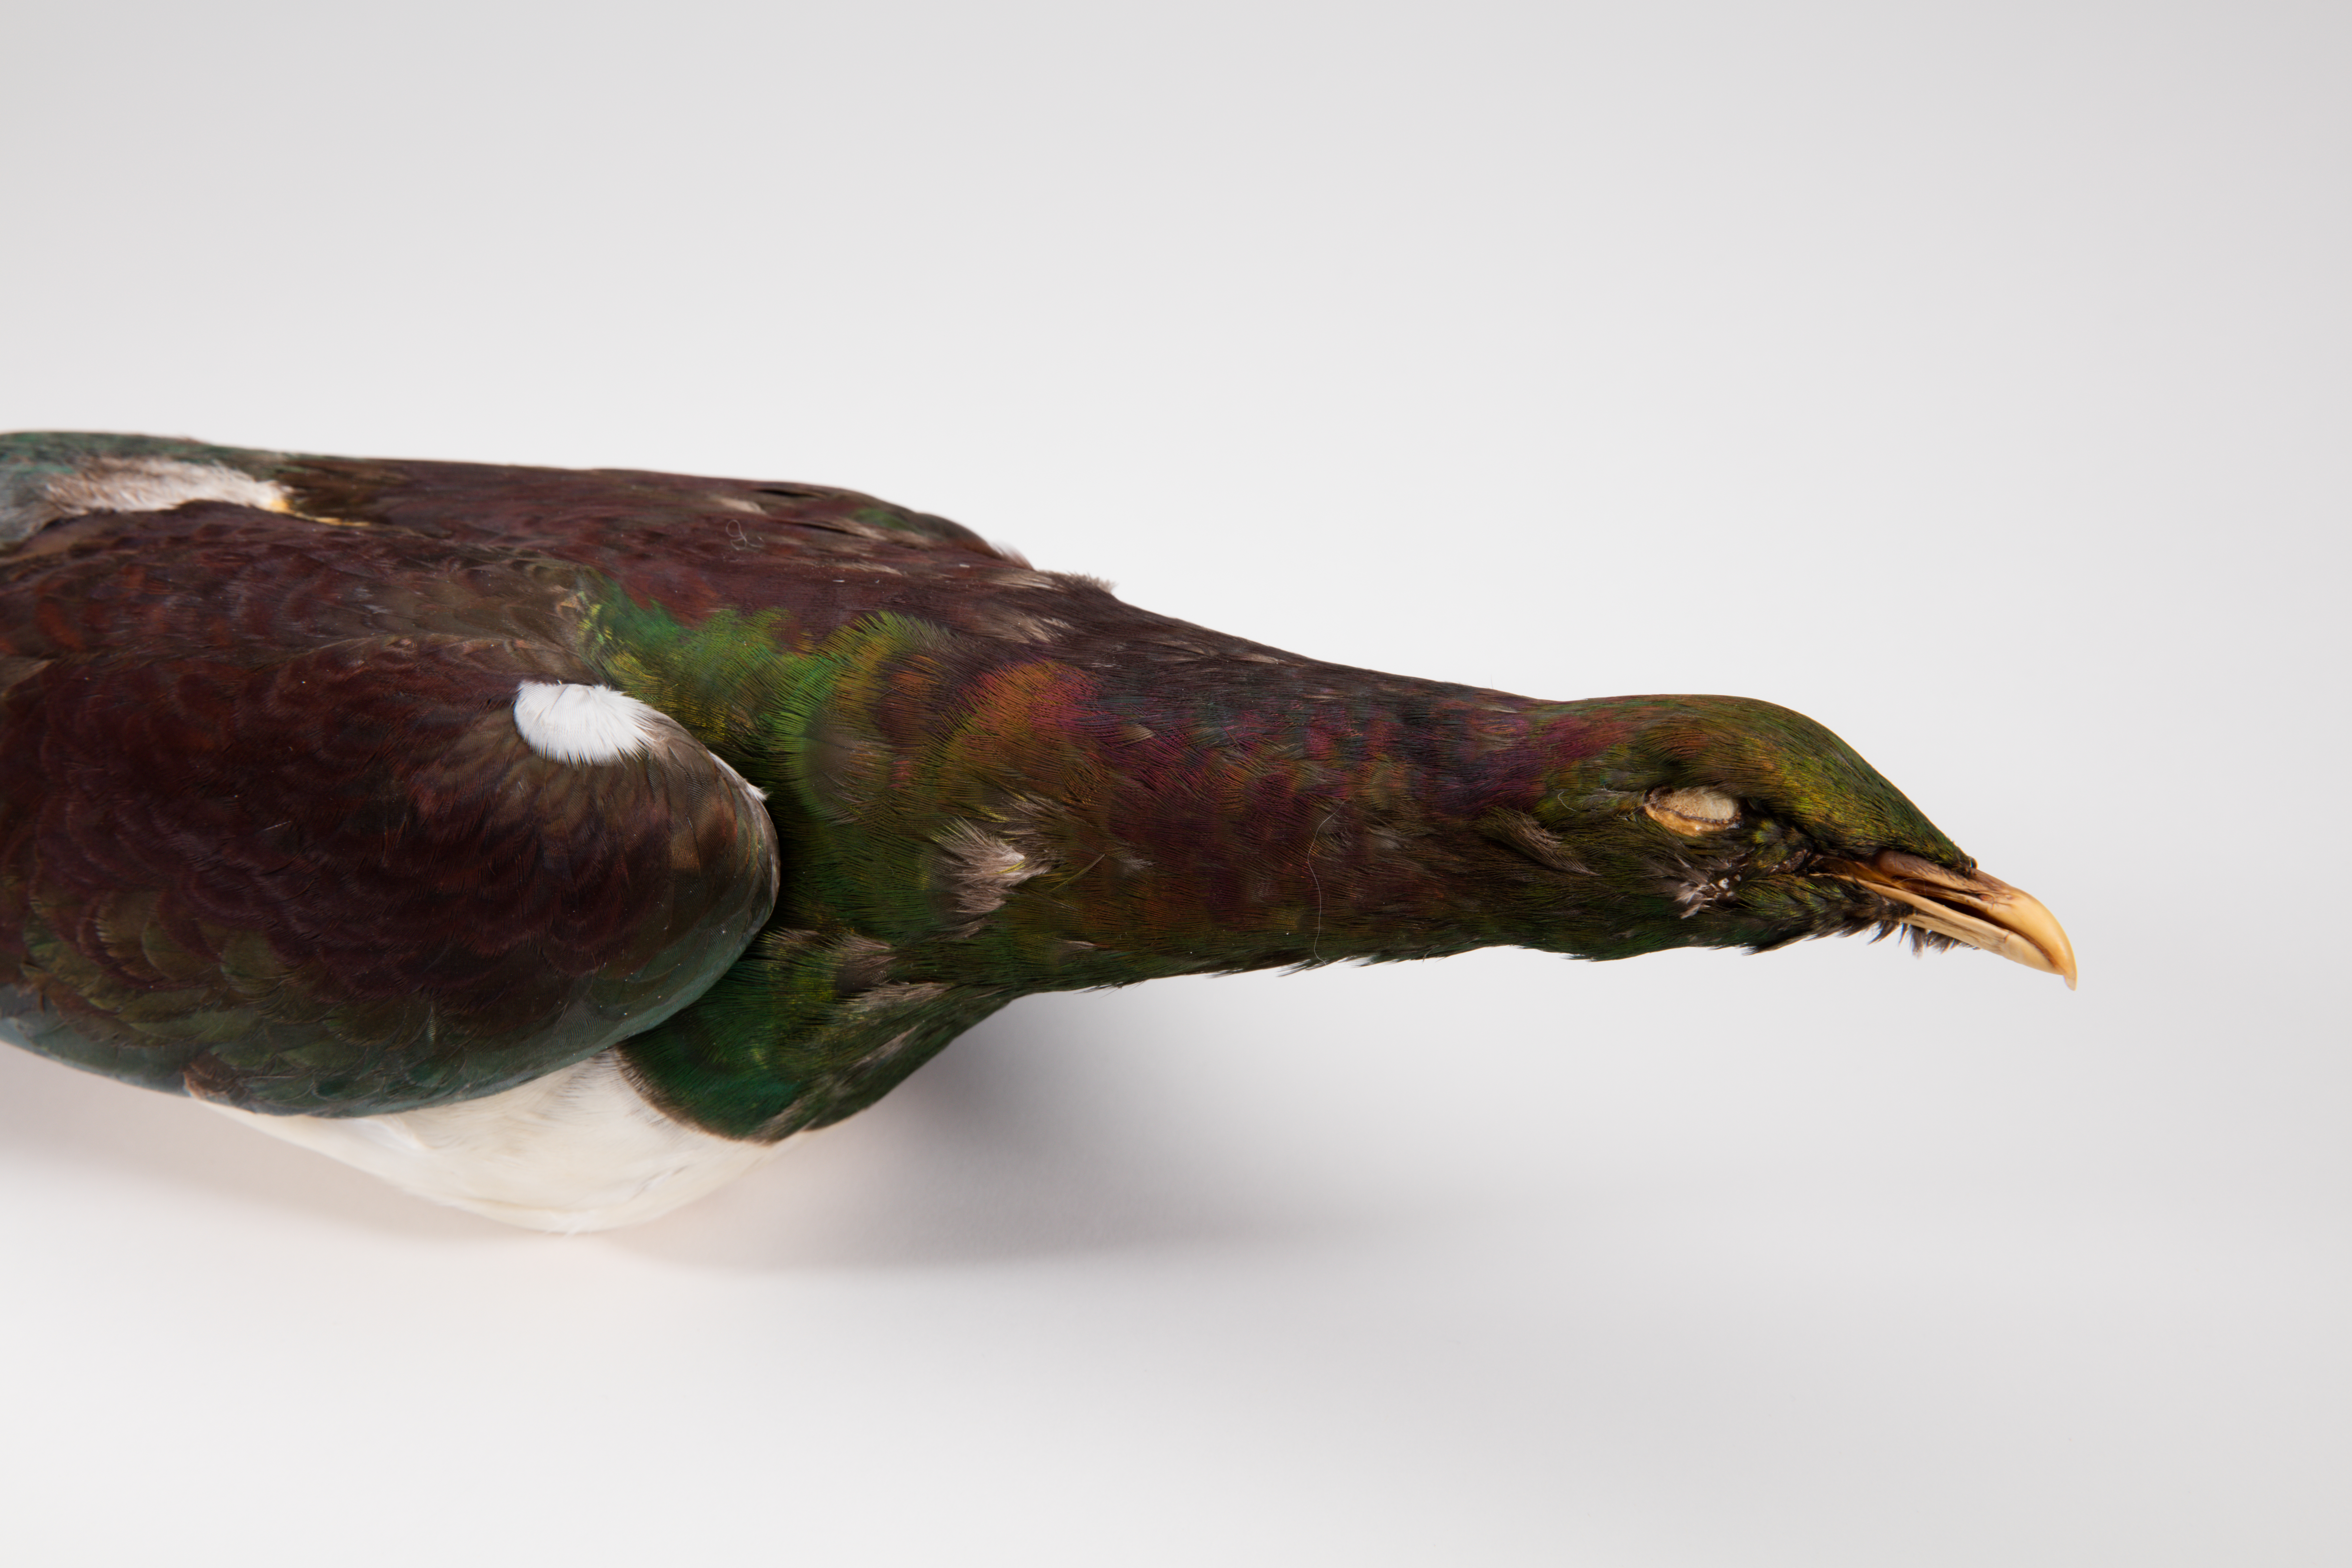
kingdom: Animalia
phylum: Chordata
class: Aves
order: Columbiformes
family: Columbidae
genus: Hemiphaga
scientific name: Hemiphaga novaeseelandiae
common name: New zealand pigeon
